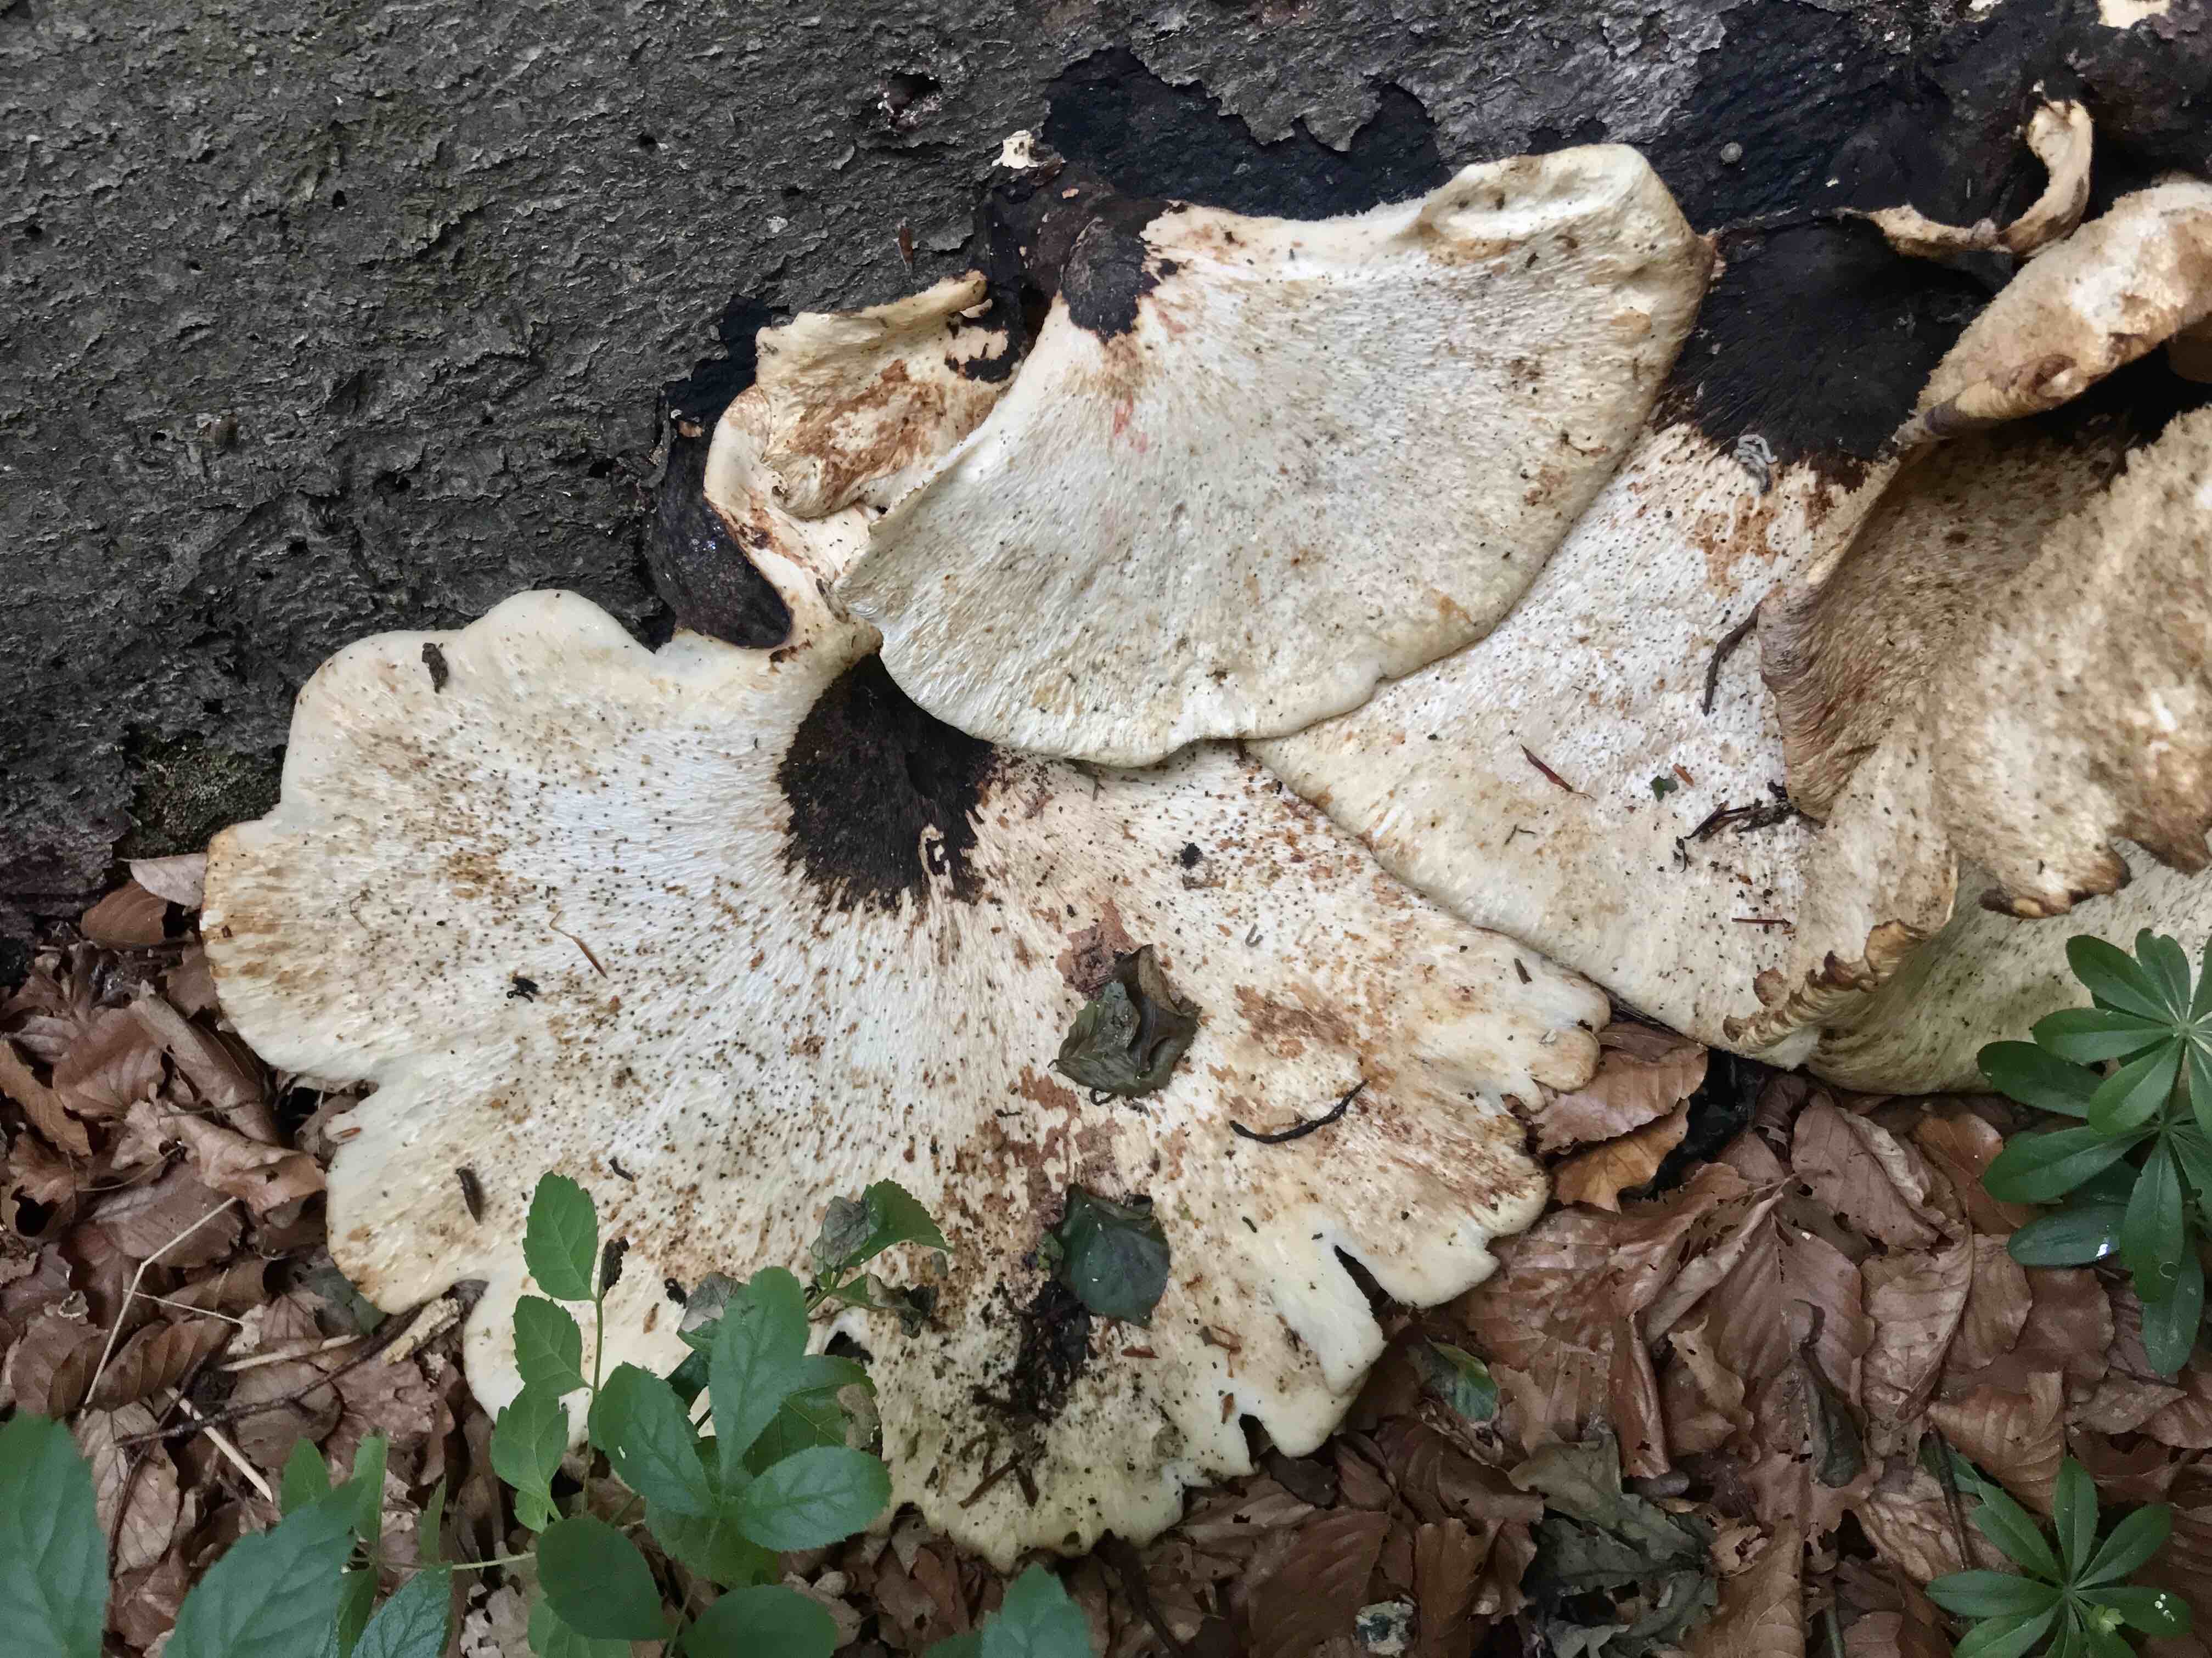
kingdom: Fungi
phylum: Basidiomycota
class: Agaricomycetes
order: Polyporales
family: Polyporaceae
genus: Cerioporus
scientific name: Cerioporus squamosus
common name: skællet stilkporesvamp
